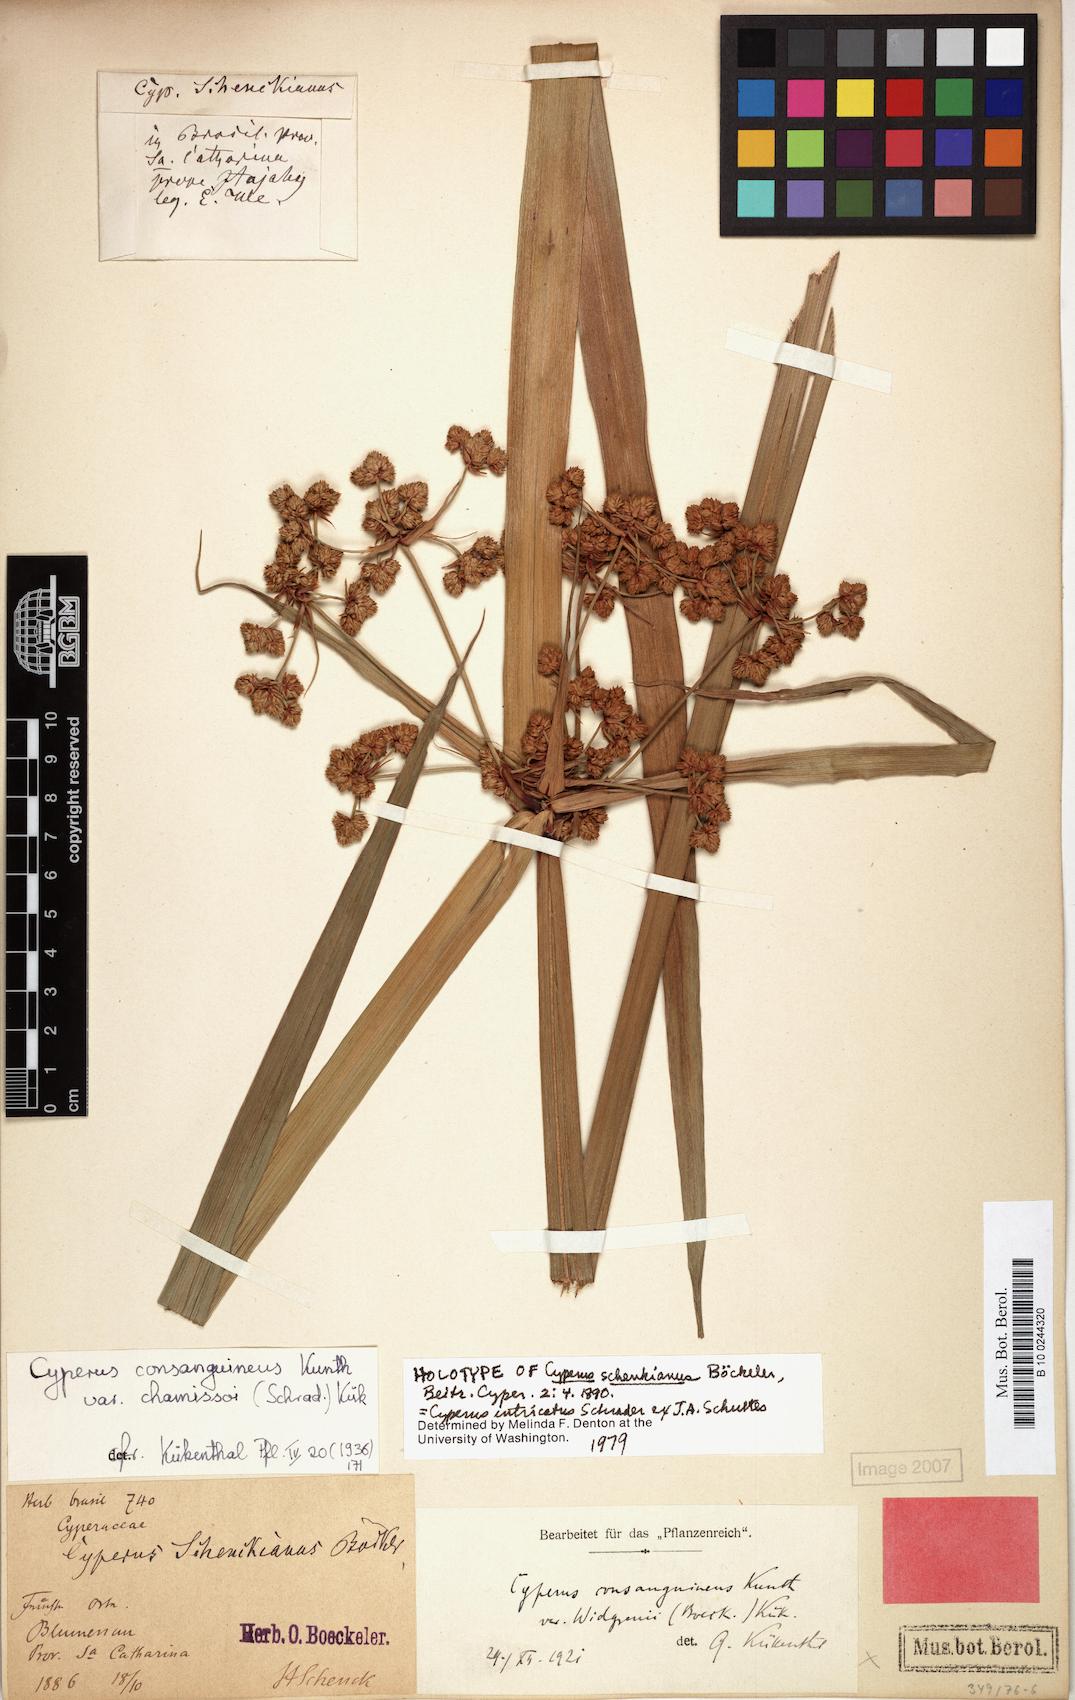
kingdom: Plantae
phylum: Tracheophyta
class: Liliopsida
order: Poales
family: Cyperaceae
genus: Cyperus
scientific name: Cyperus intricatus
